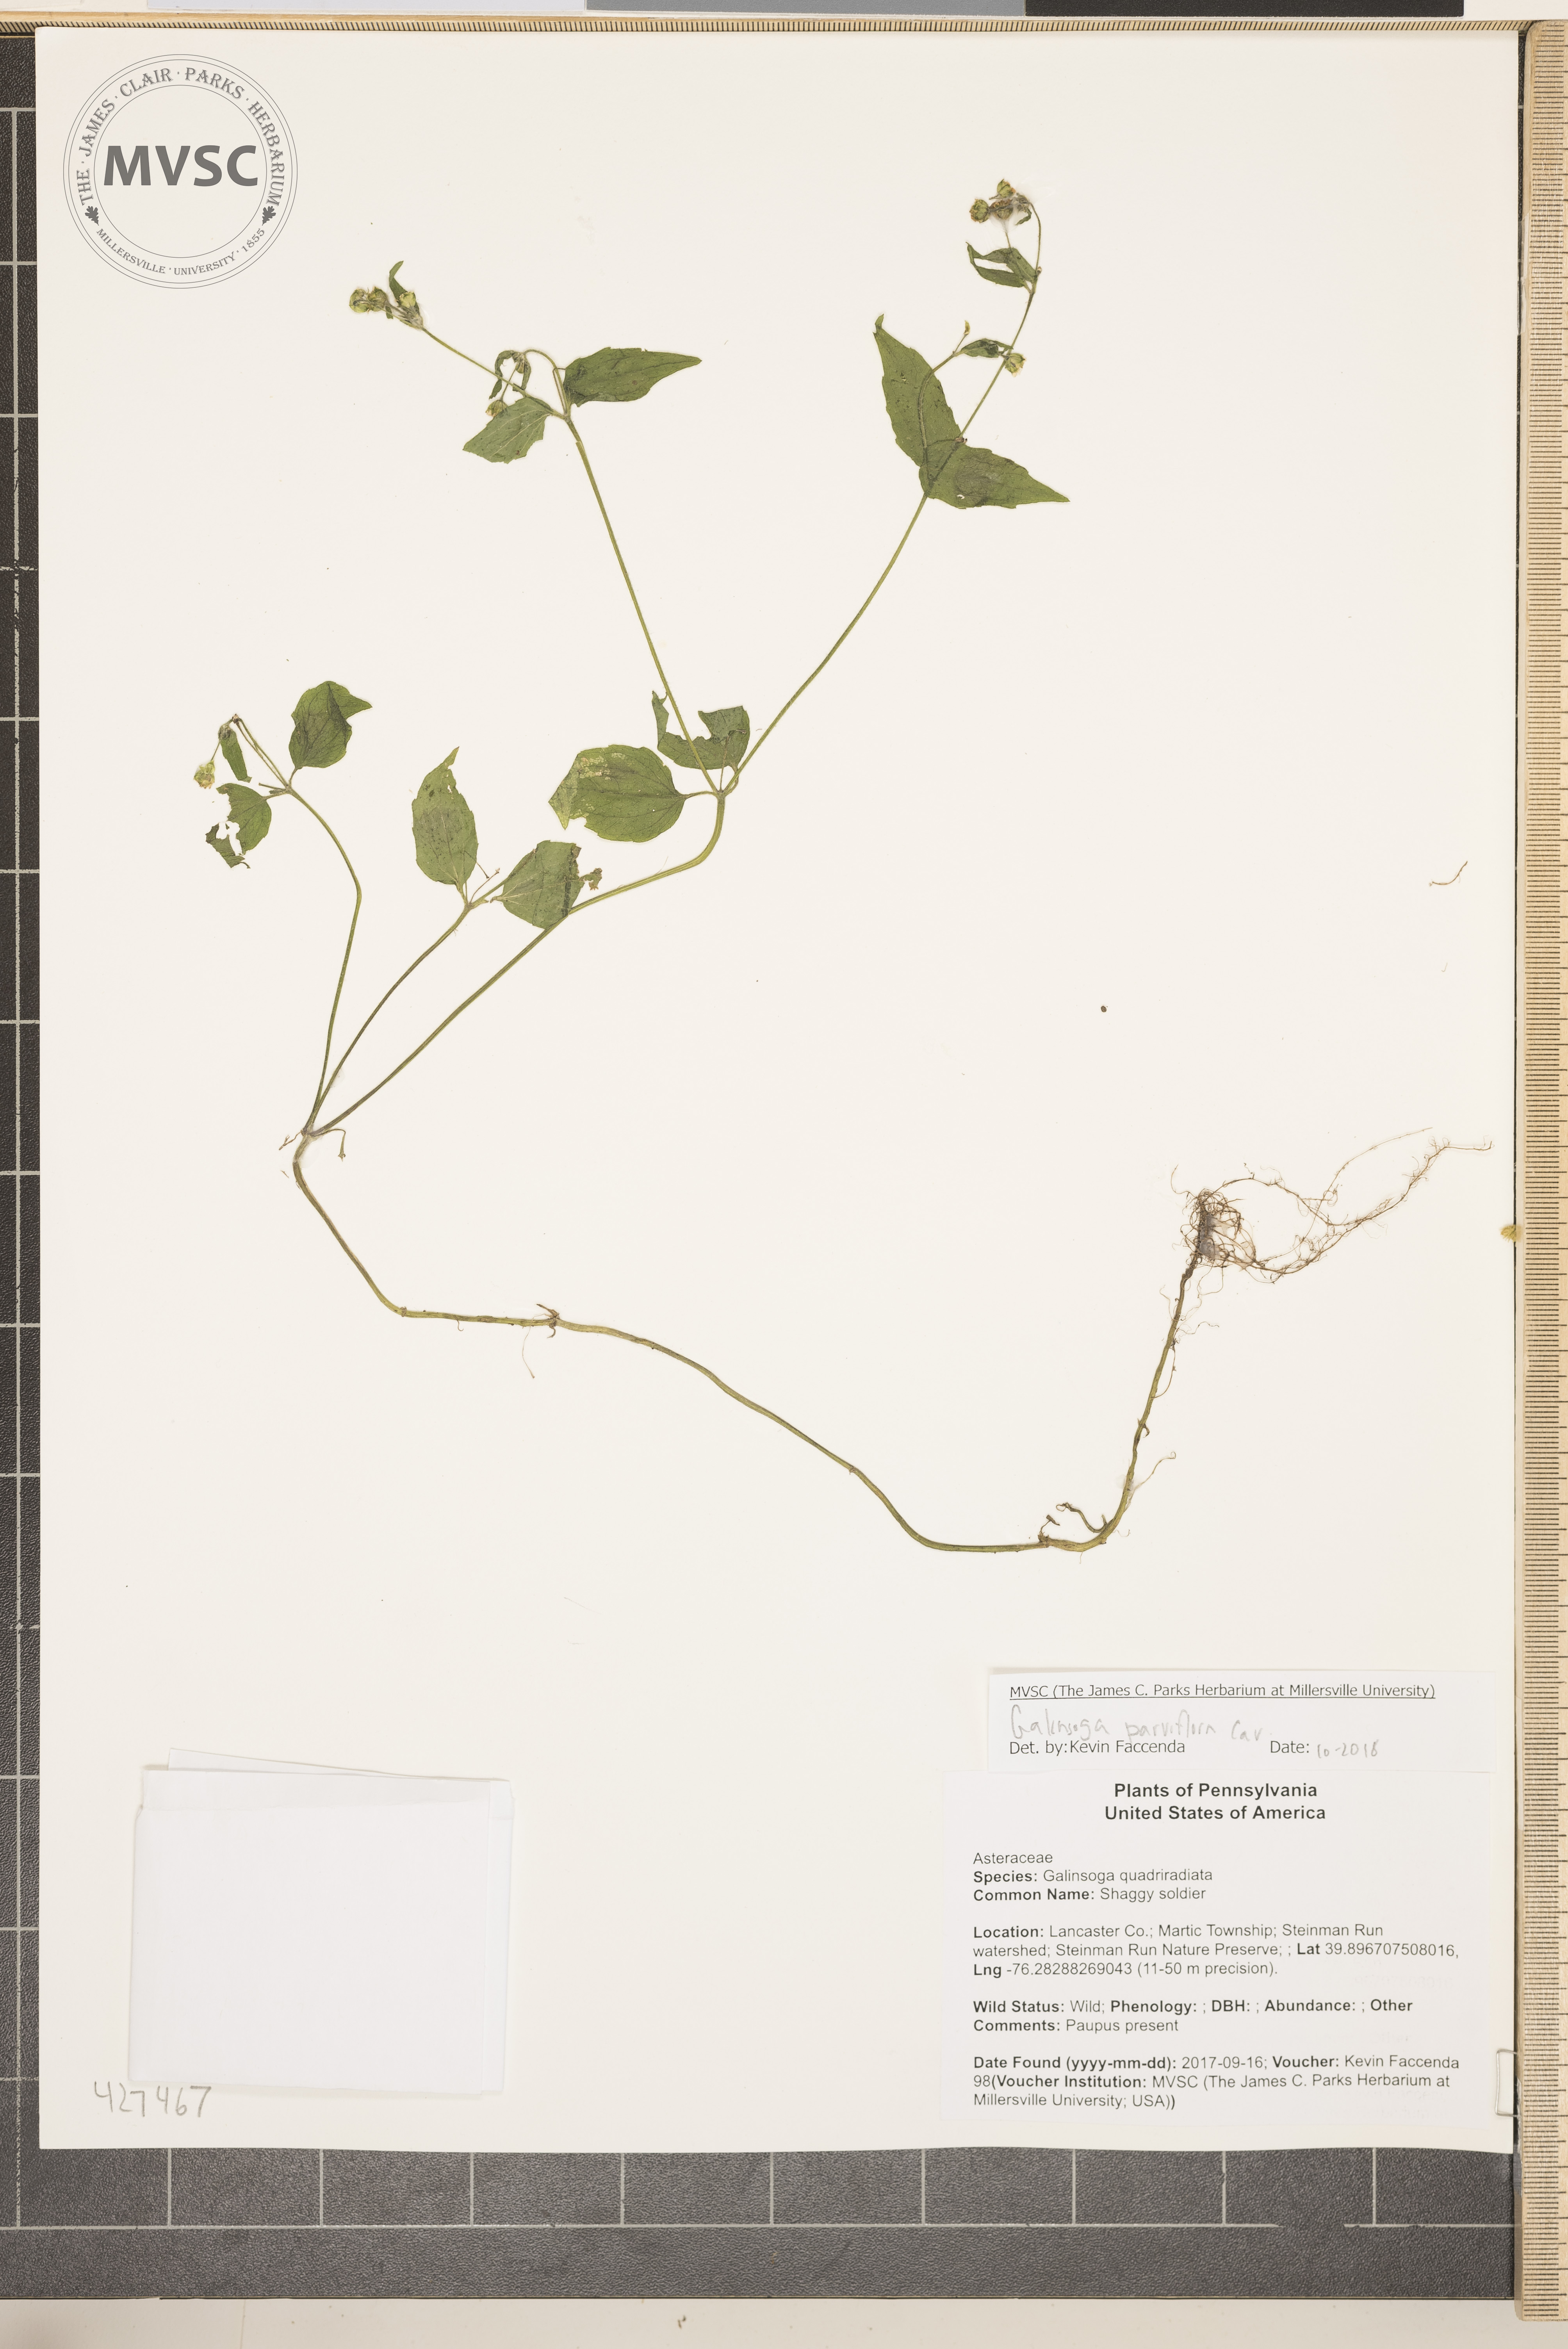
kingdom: Plantae
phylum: Tracheophyta
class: Magnoliopsida
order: Asterales
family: Asteraceae
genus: Galinsoga
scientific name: Galinsoga parviflora
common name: Shaggy soldier
